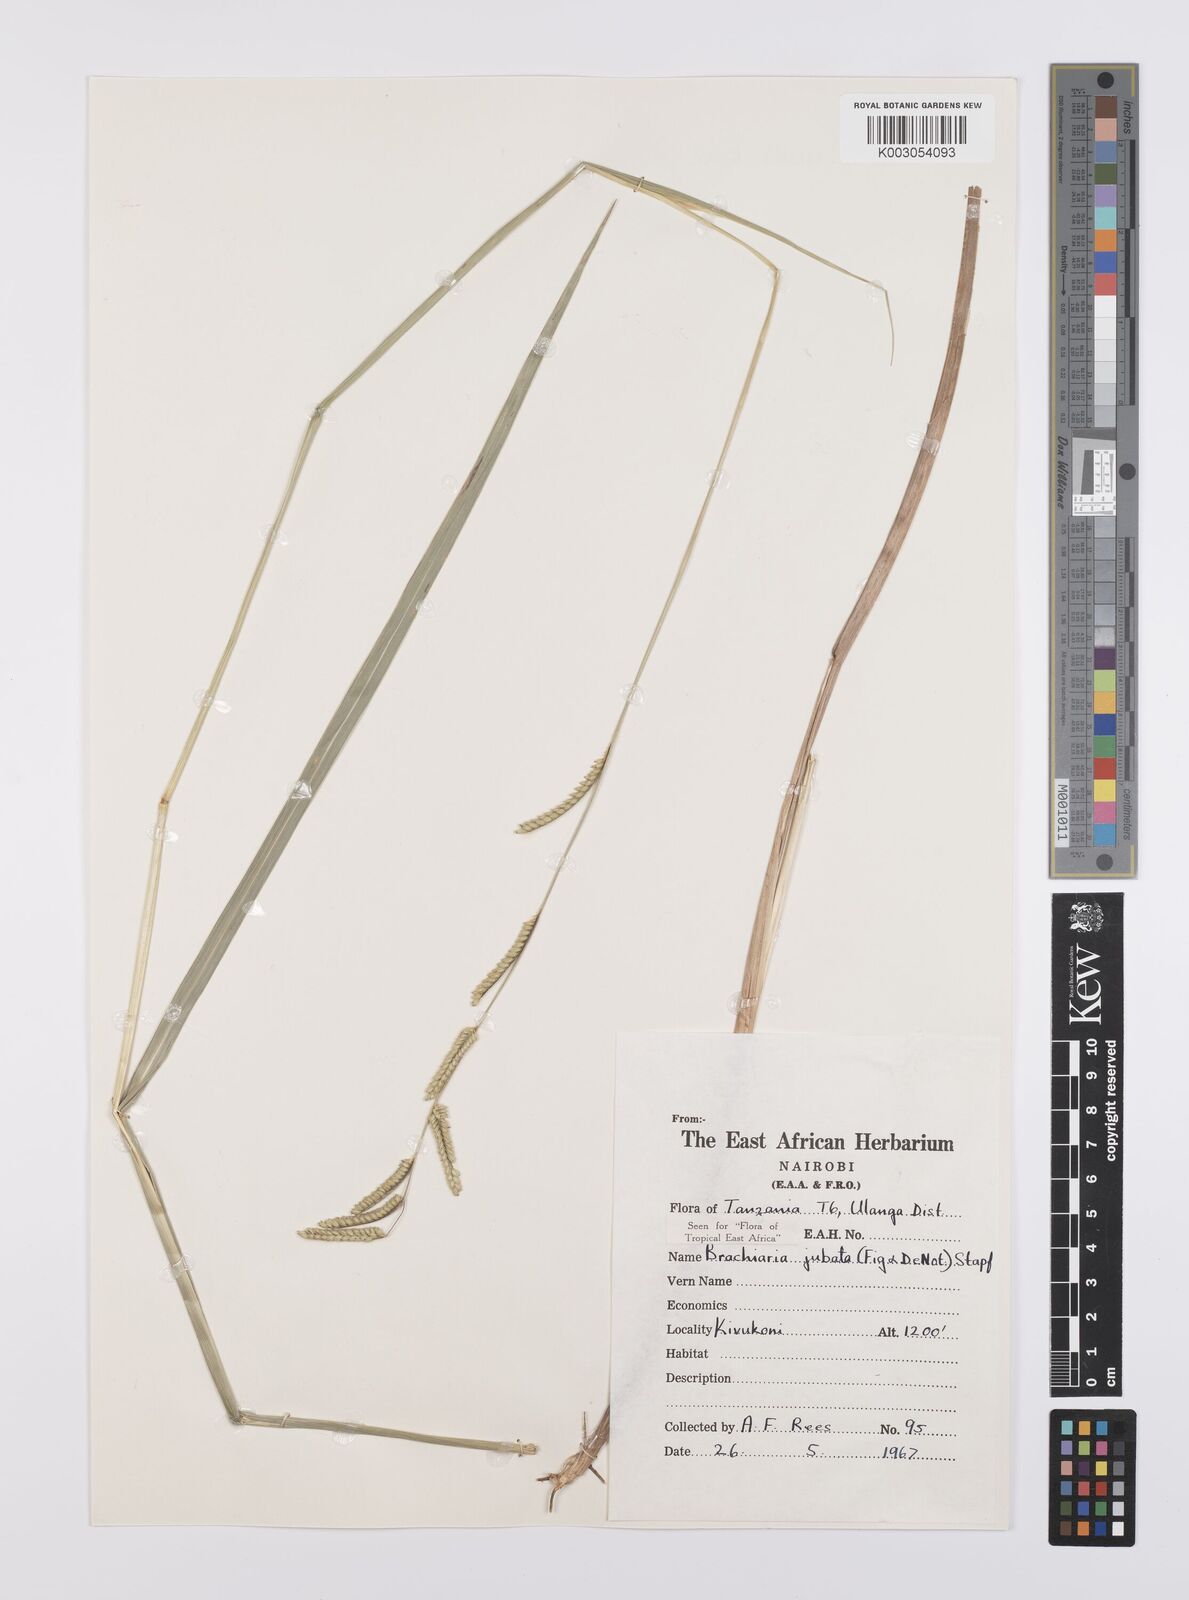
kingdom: Plantae
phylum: Tracheophyta
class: Liliopsida
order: Poales
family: Poaceae
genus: Urochloa
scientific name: Urochloa jubata
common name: Buffalograss
